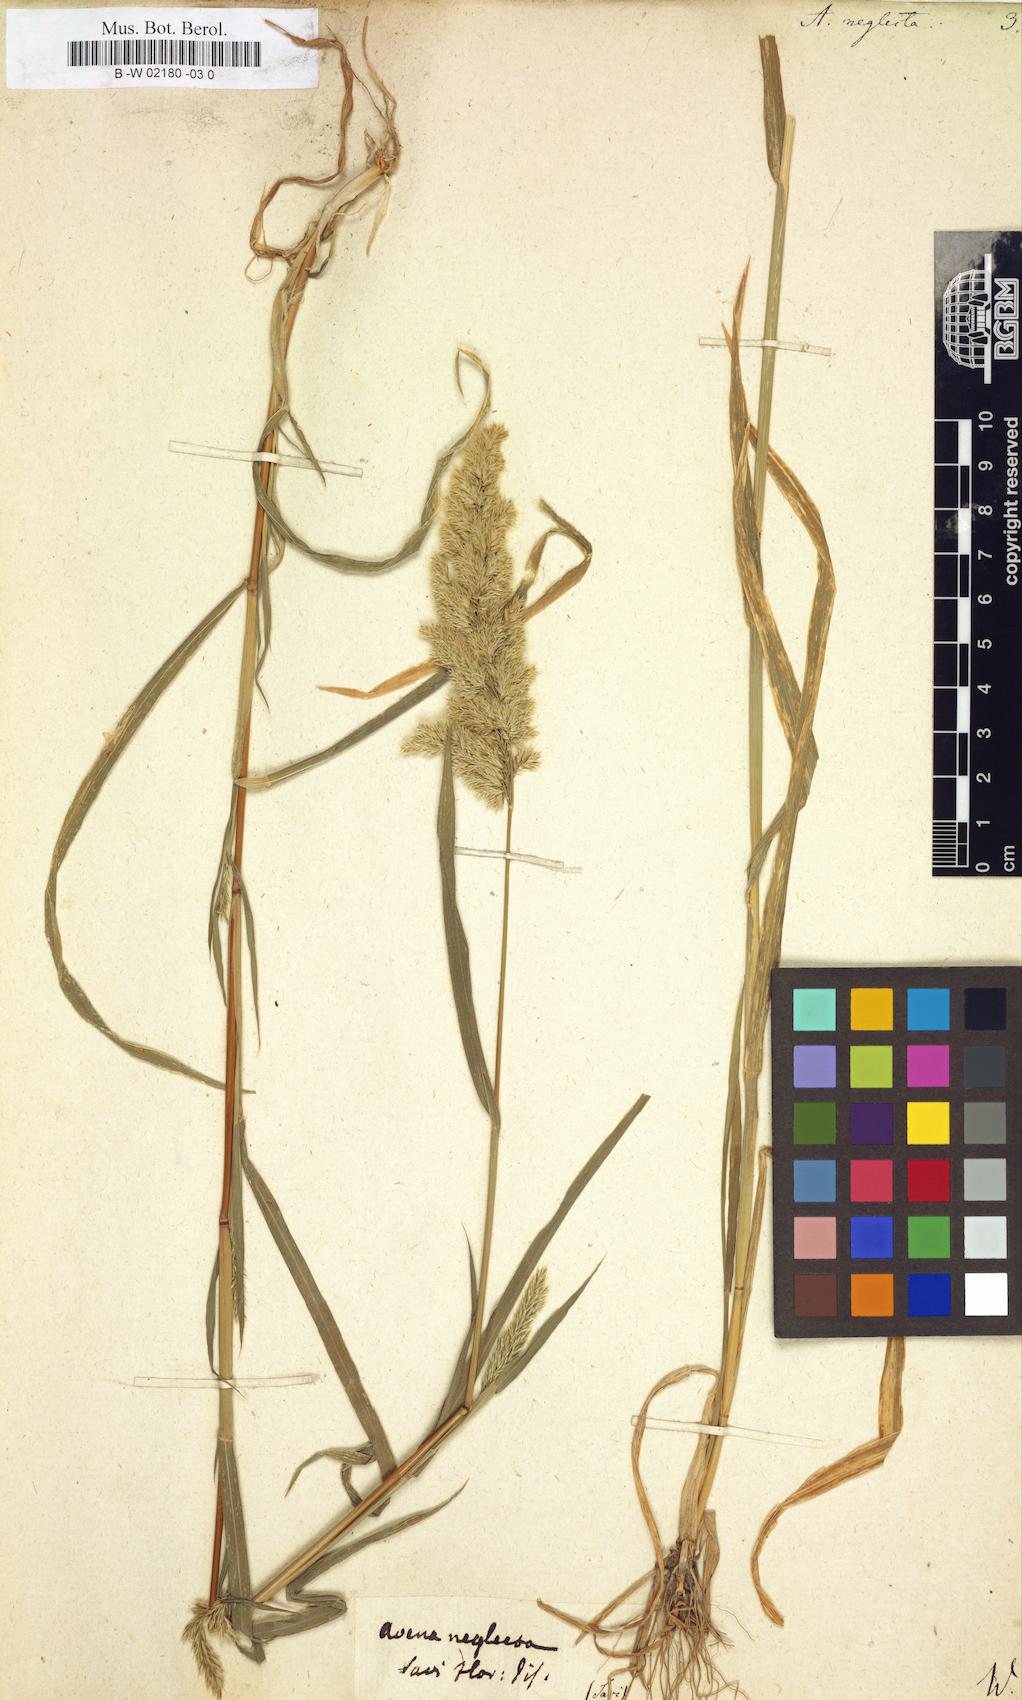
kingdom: Plantae
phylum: Tracheophyta
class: Liliopsida
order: Poales
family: Poaceae
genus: Trisetaria
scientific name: Trisetaria panicea
